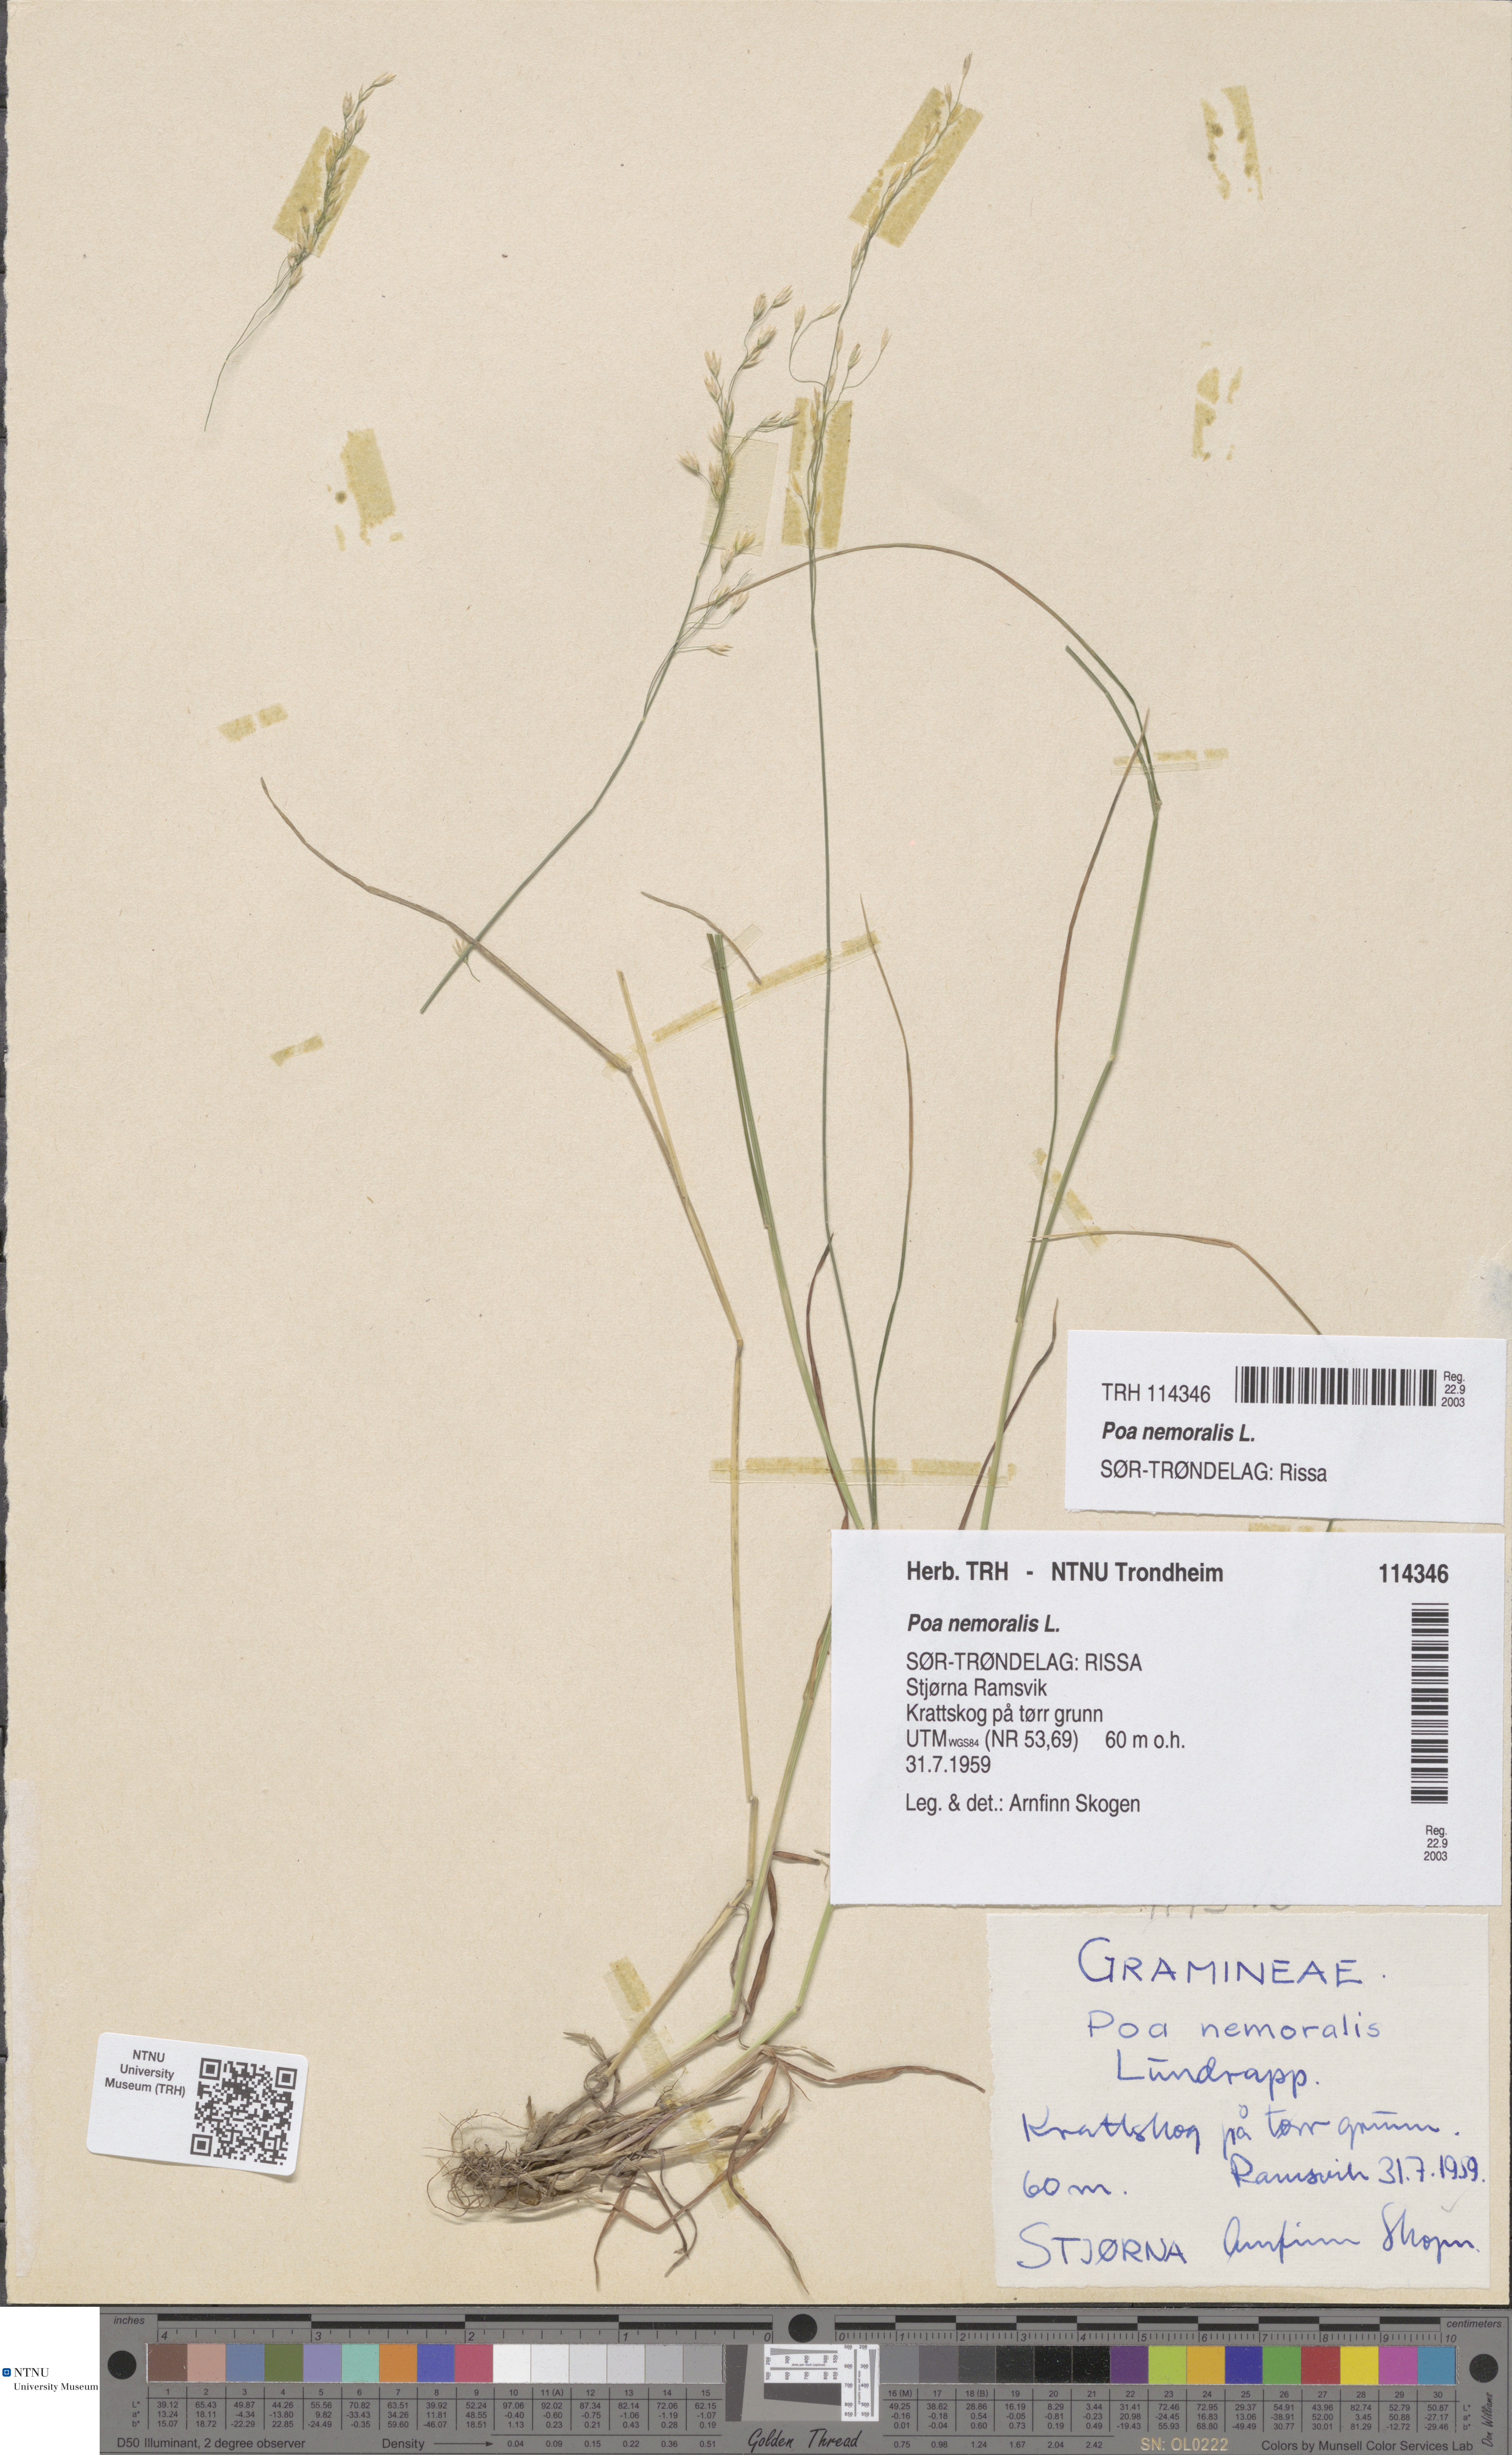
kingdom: Plantae
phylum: Tracheophyta
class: Liliopsida
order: Poales
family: Poaceae
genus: Poa
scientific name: Poa nemoralis
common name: Wood bluegrass
